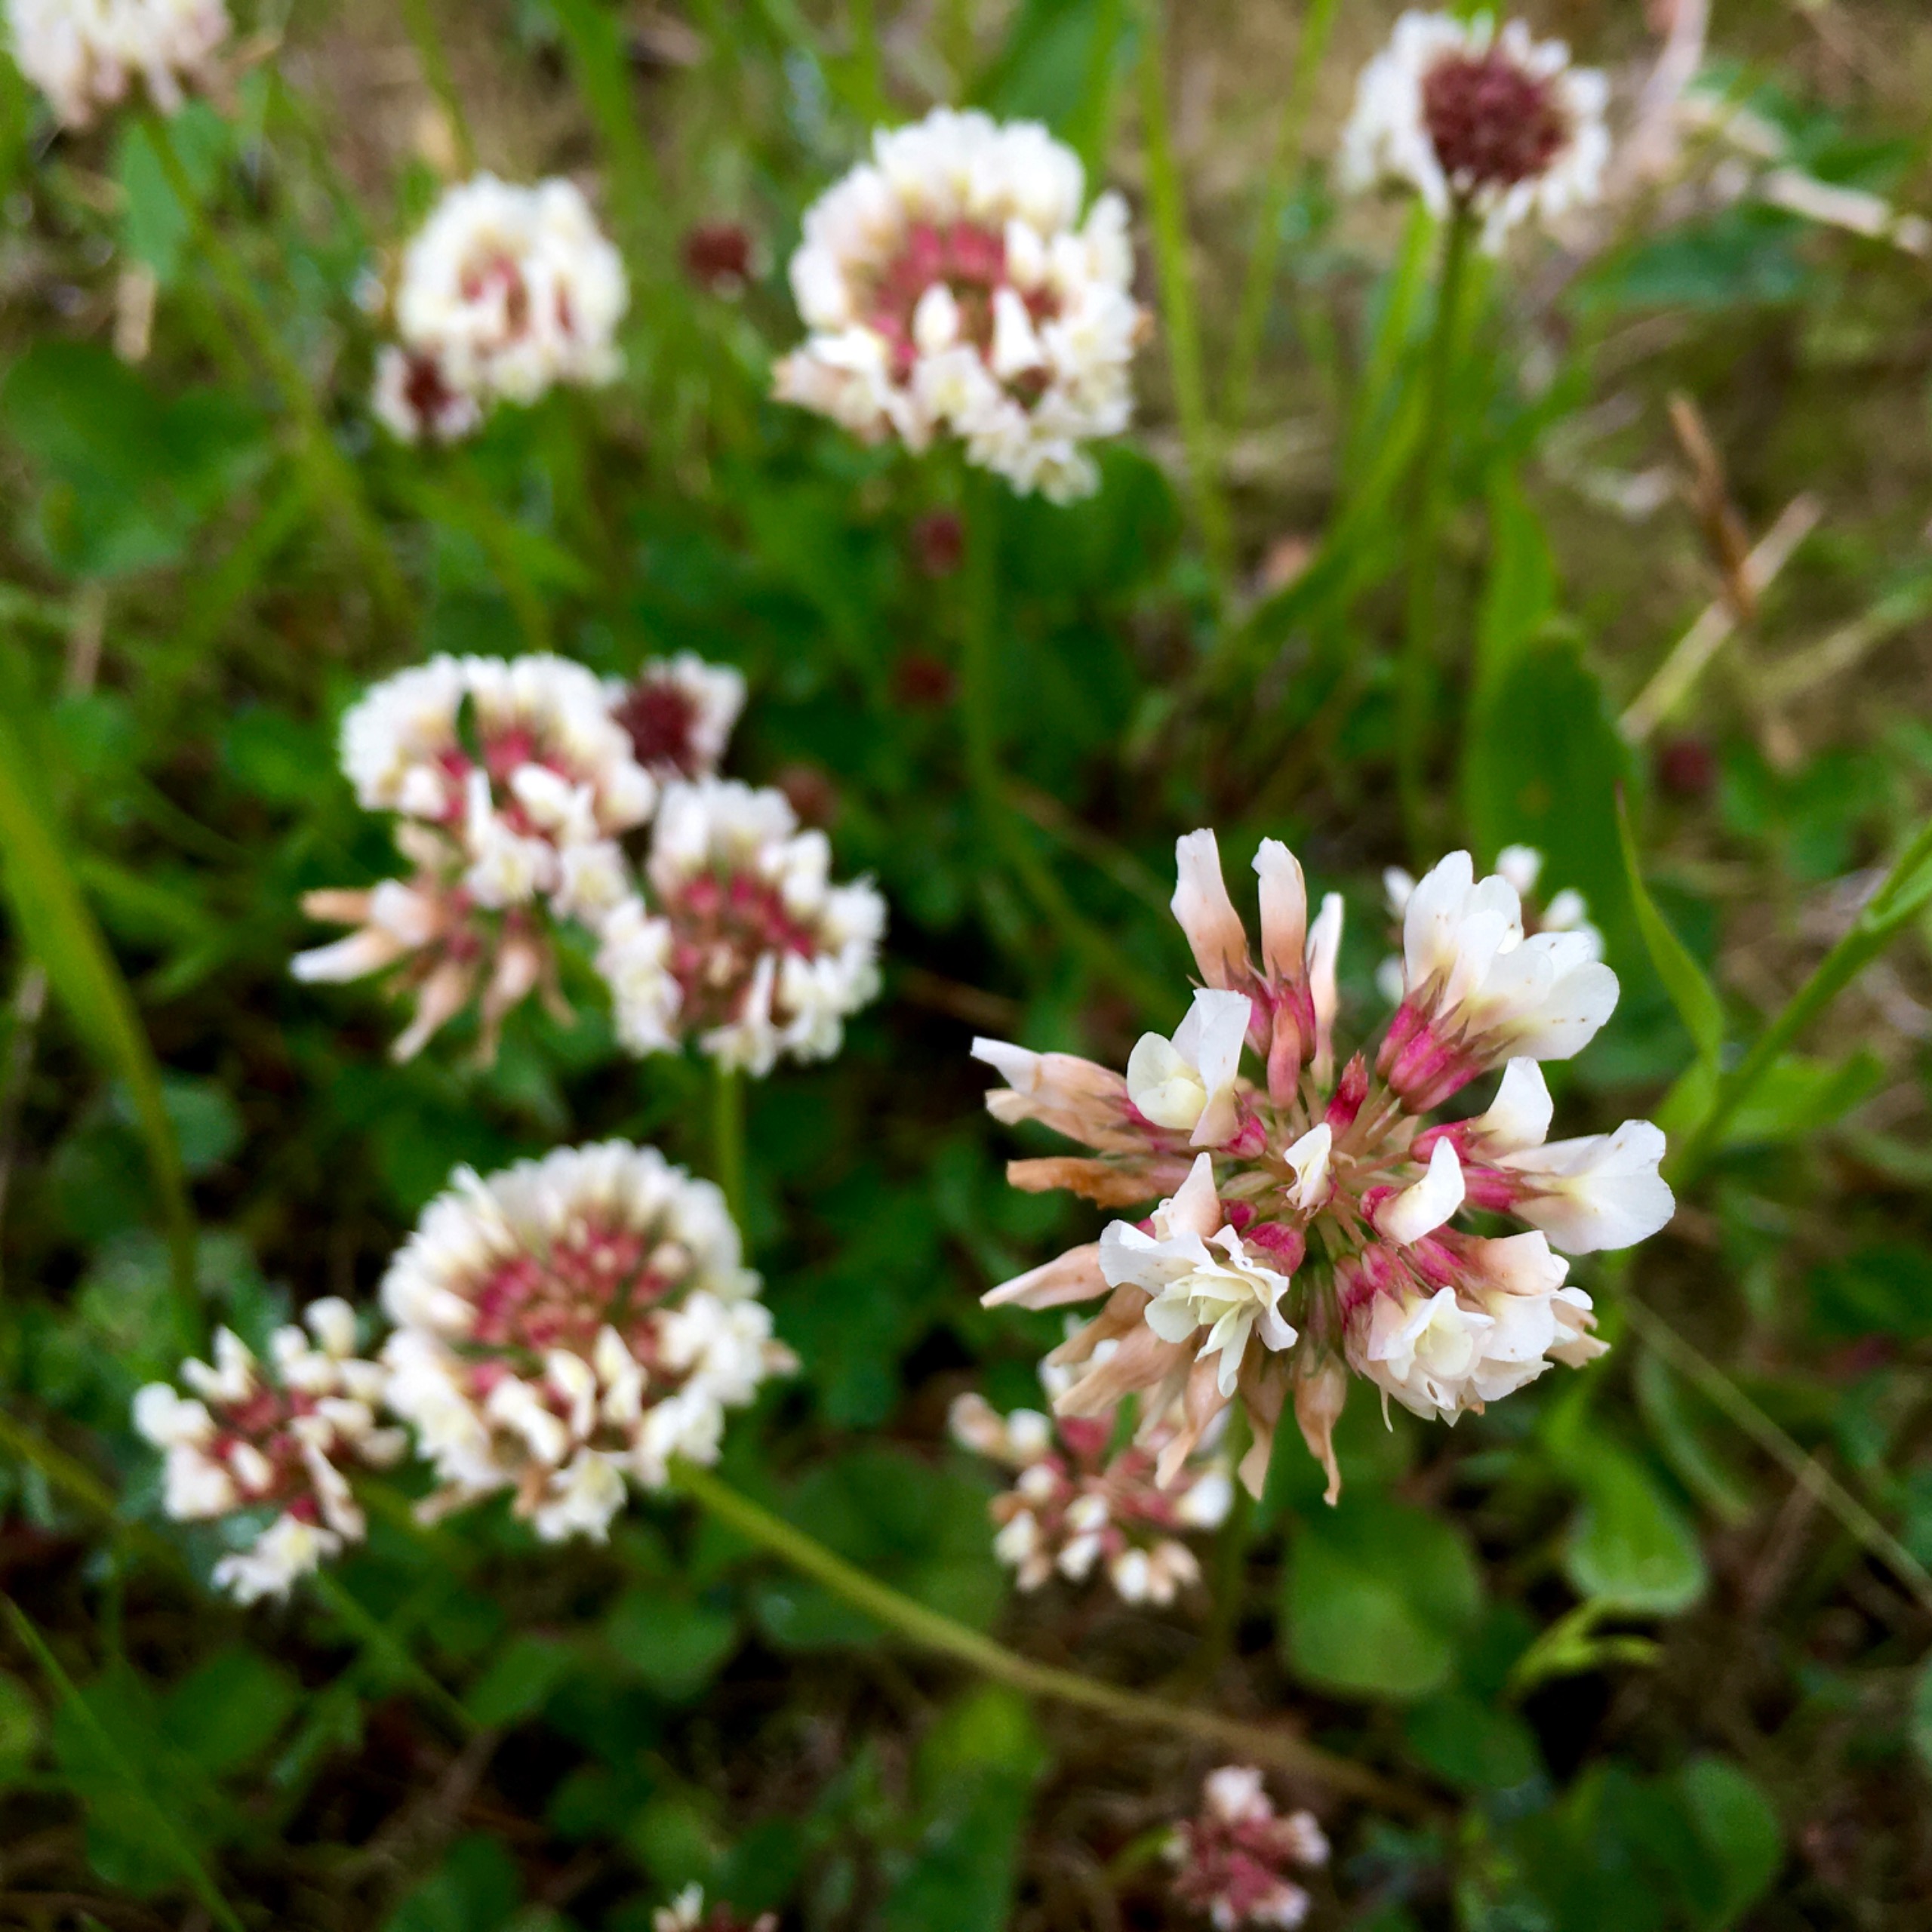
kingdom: Plantae
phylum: Tracheophyta
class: Magnoliopsida
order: Fabales
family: Fabaceae
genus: Trifolium
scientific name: Trifolium repens
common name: Hvid-kløver
